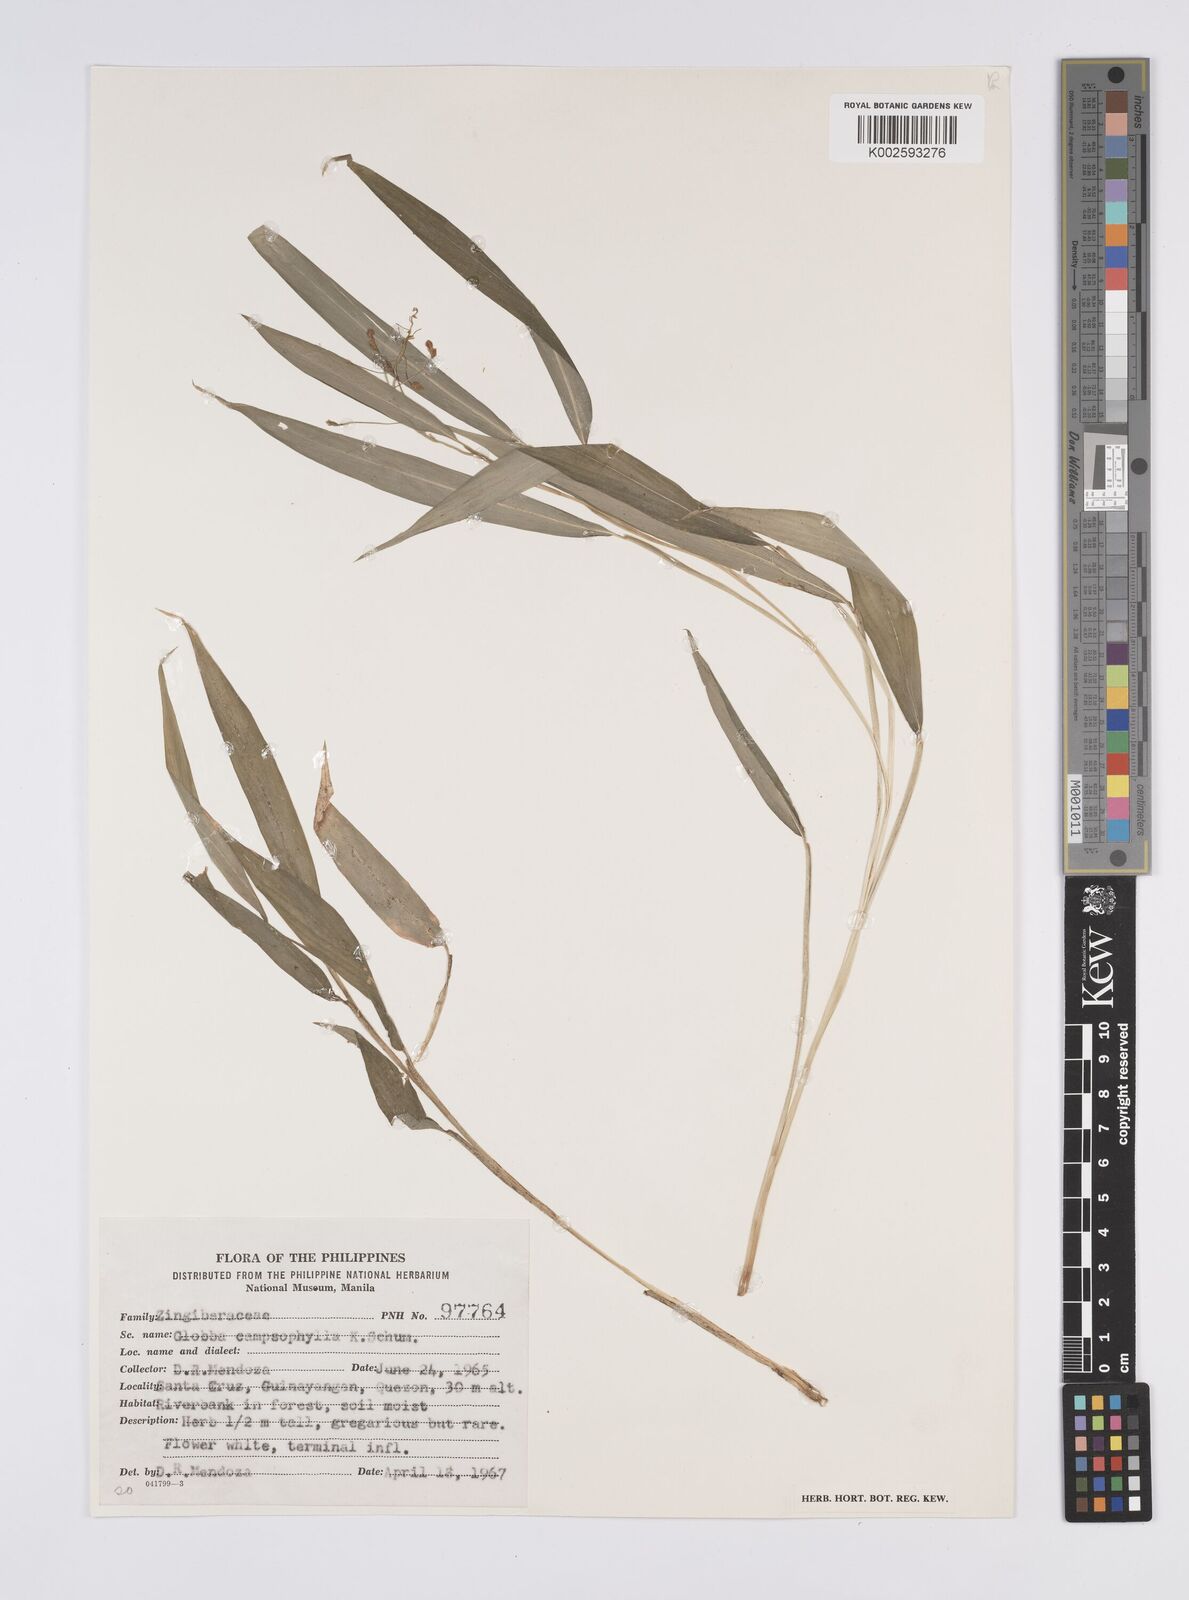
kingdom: Plantae
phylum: Tracheophyta
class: Liliopsida
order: Zingiberales
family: Zingiberaceae
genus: Globba
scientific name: Globba campsophylla
